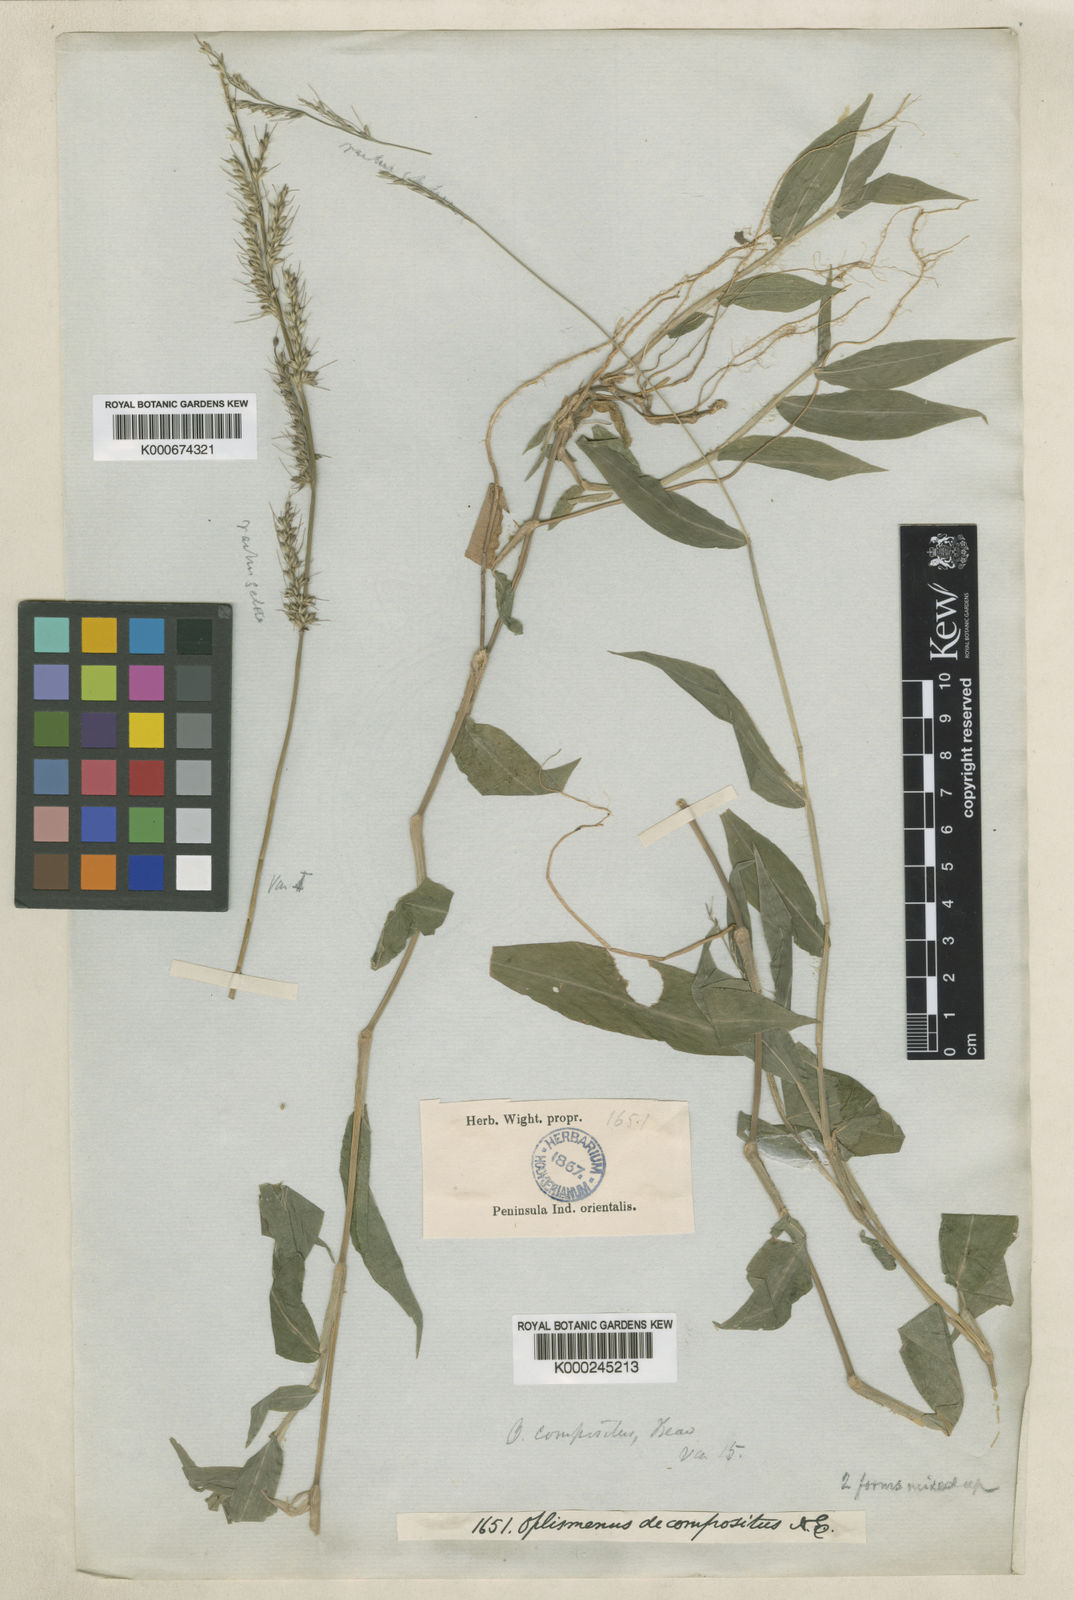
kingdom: Plantae
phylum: Tracheophyta
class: Liliopsida
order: Poales
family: Poaceae
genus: Oplismenus
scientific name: Oplismenus compositus
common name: Running mountain grass
